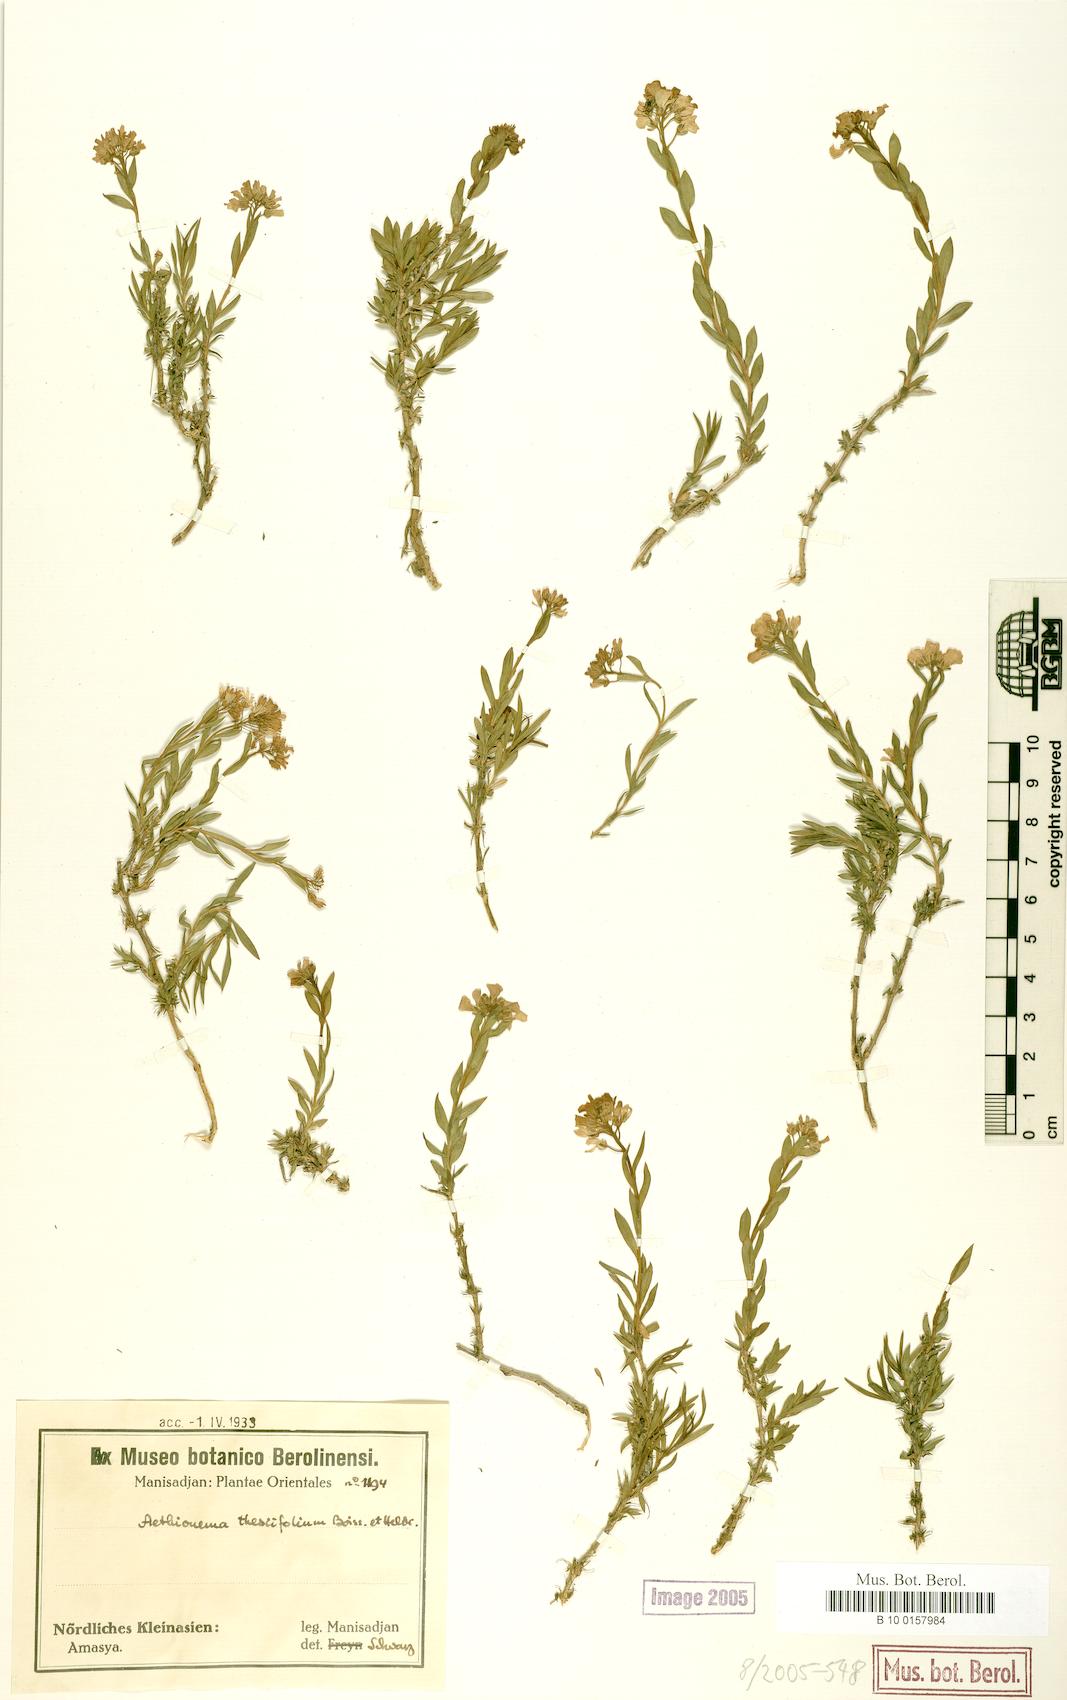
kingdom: Plantae
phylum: Tracheophyta
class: Magnoliopsida
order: Brassicales
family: Brassicaceae
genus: Aethionema
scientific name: Aethionema thesiifolium
